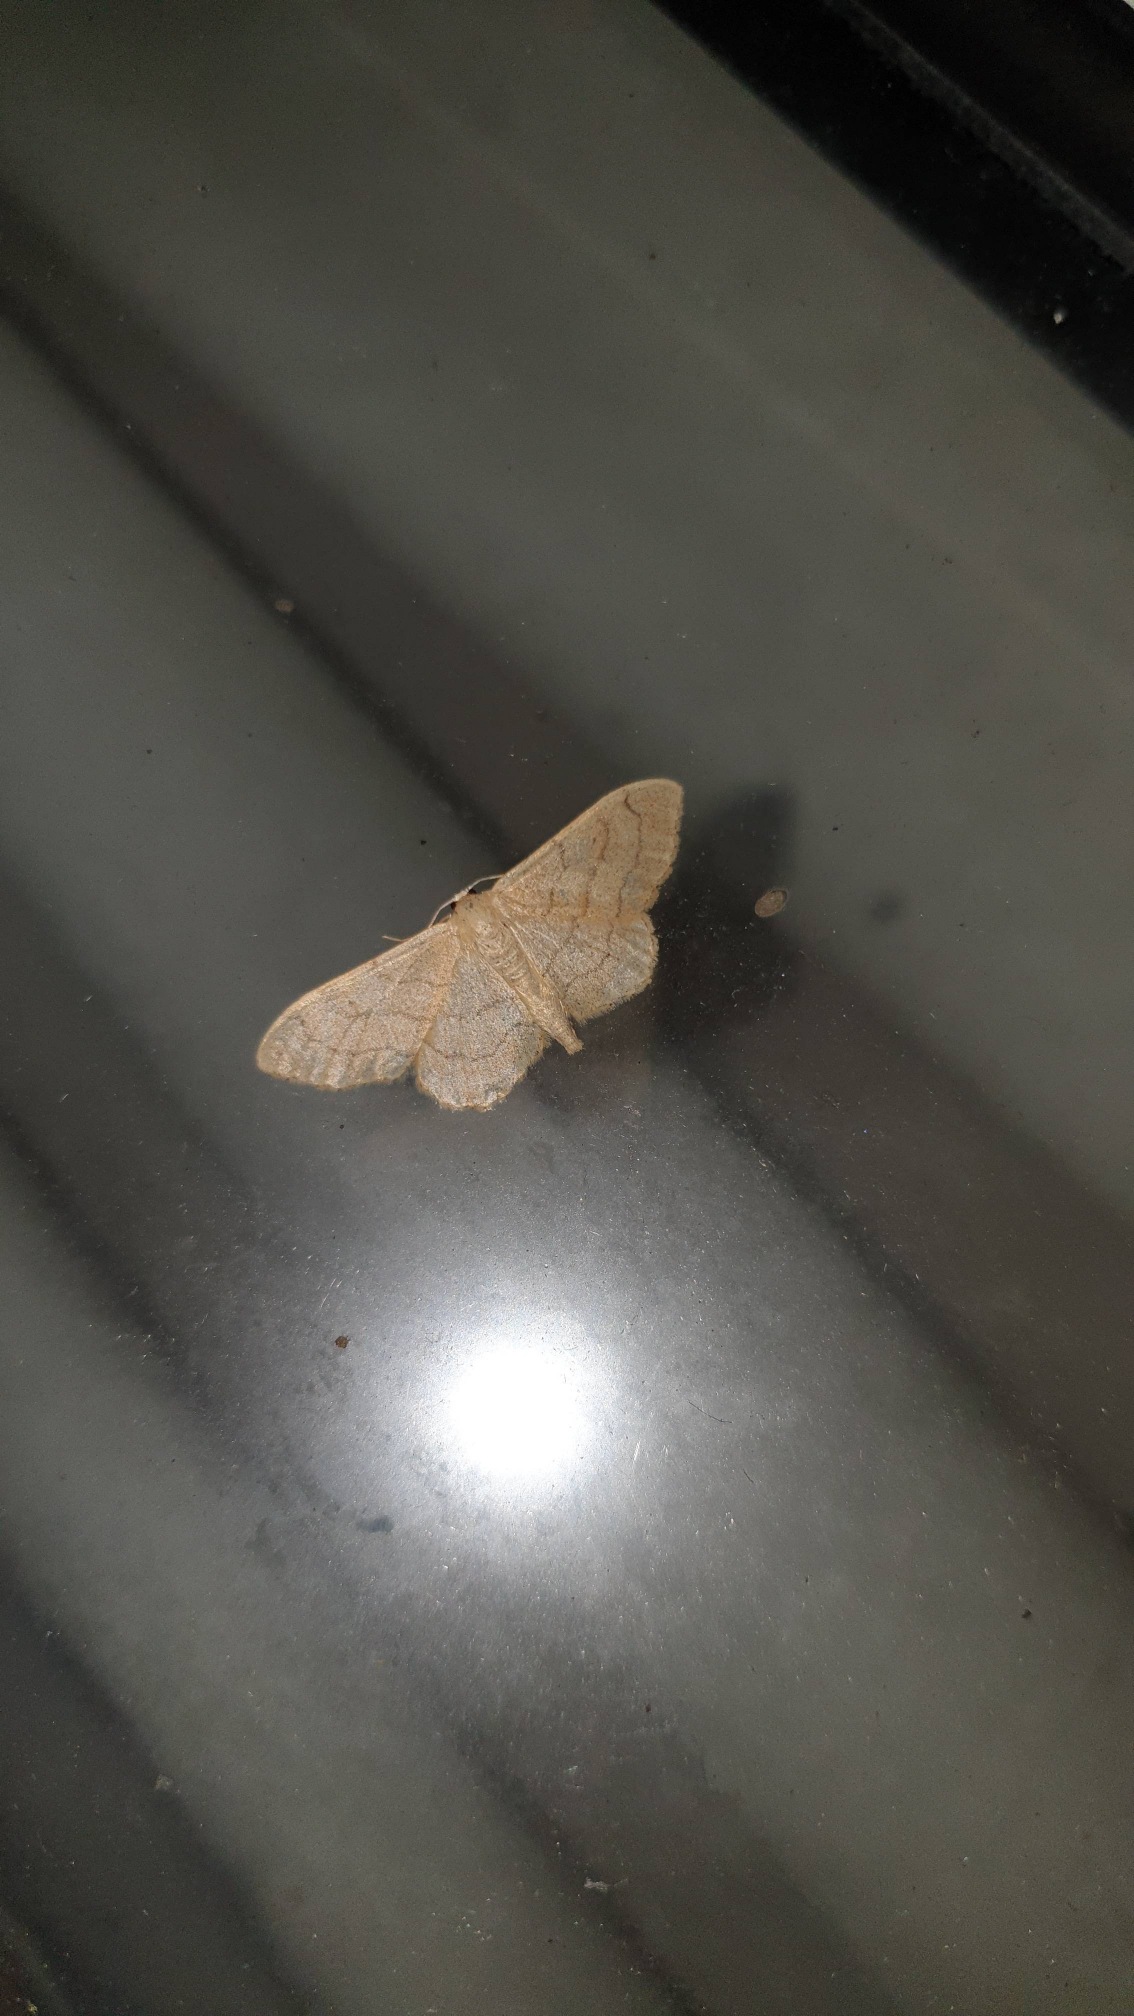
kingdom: Animalia
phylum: Arthropoda
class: Insecta
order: Lepidoptera
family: Geometridae
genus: Idaea
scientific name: Idaea aversata
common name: Vinkelstreget løvmåler
